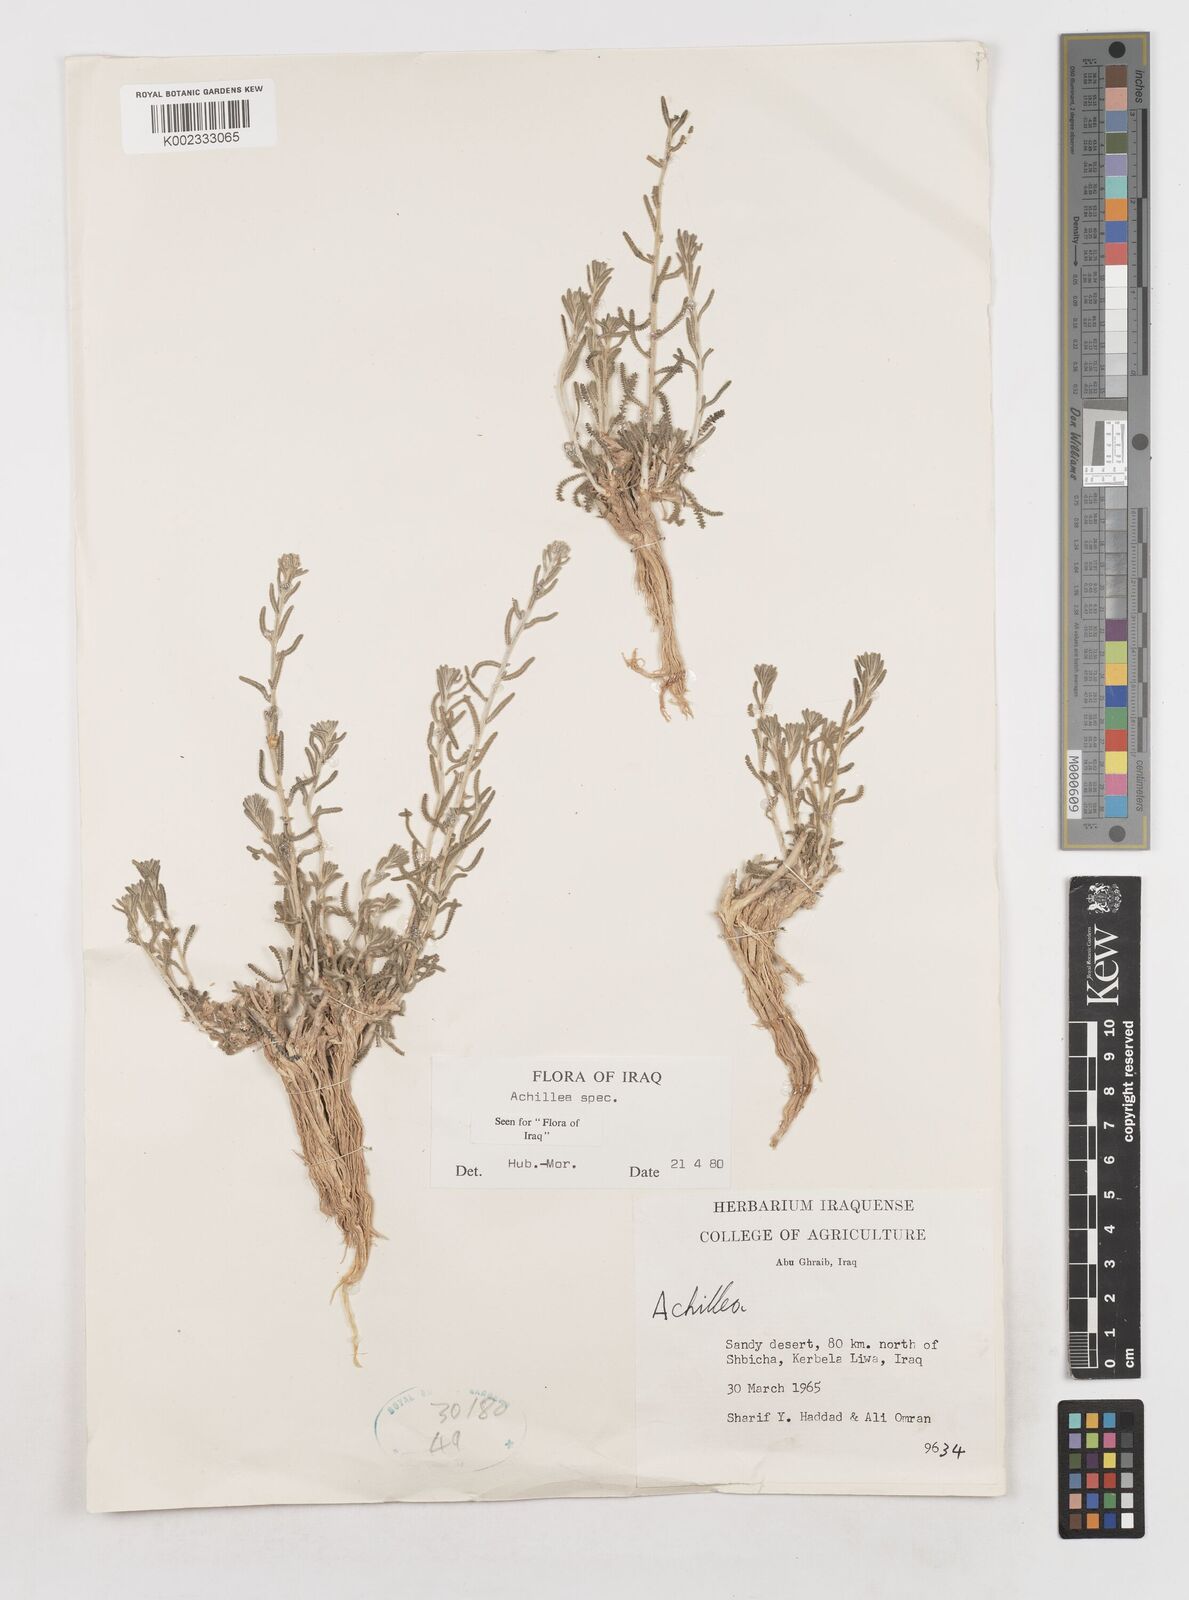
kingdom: Plantae
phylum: Tracheophyta
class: Magnoliopsida
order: Asterales
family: Asteraceae
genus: Achillea
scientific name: Achillea
